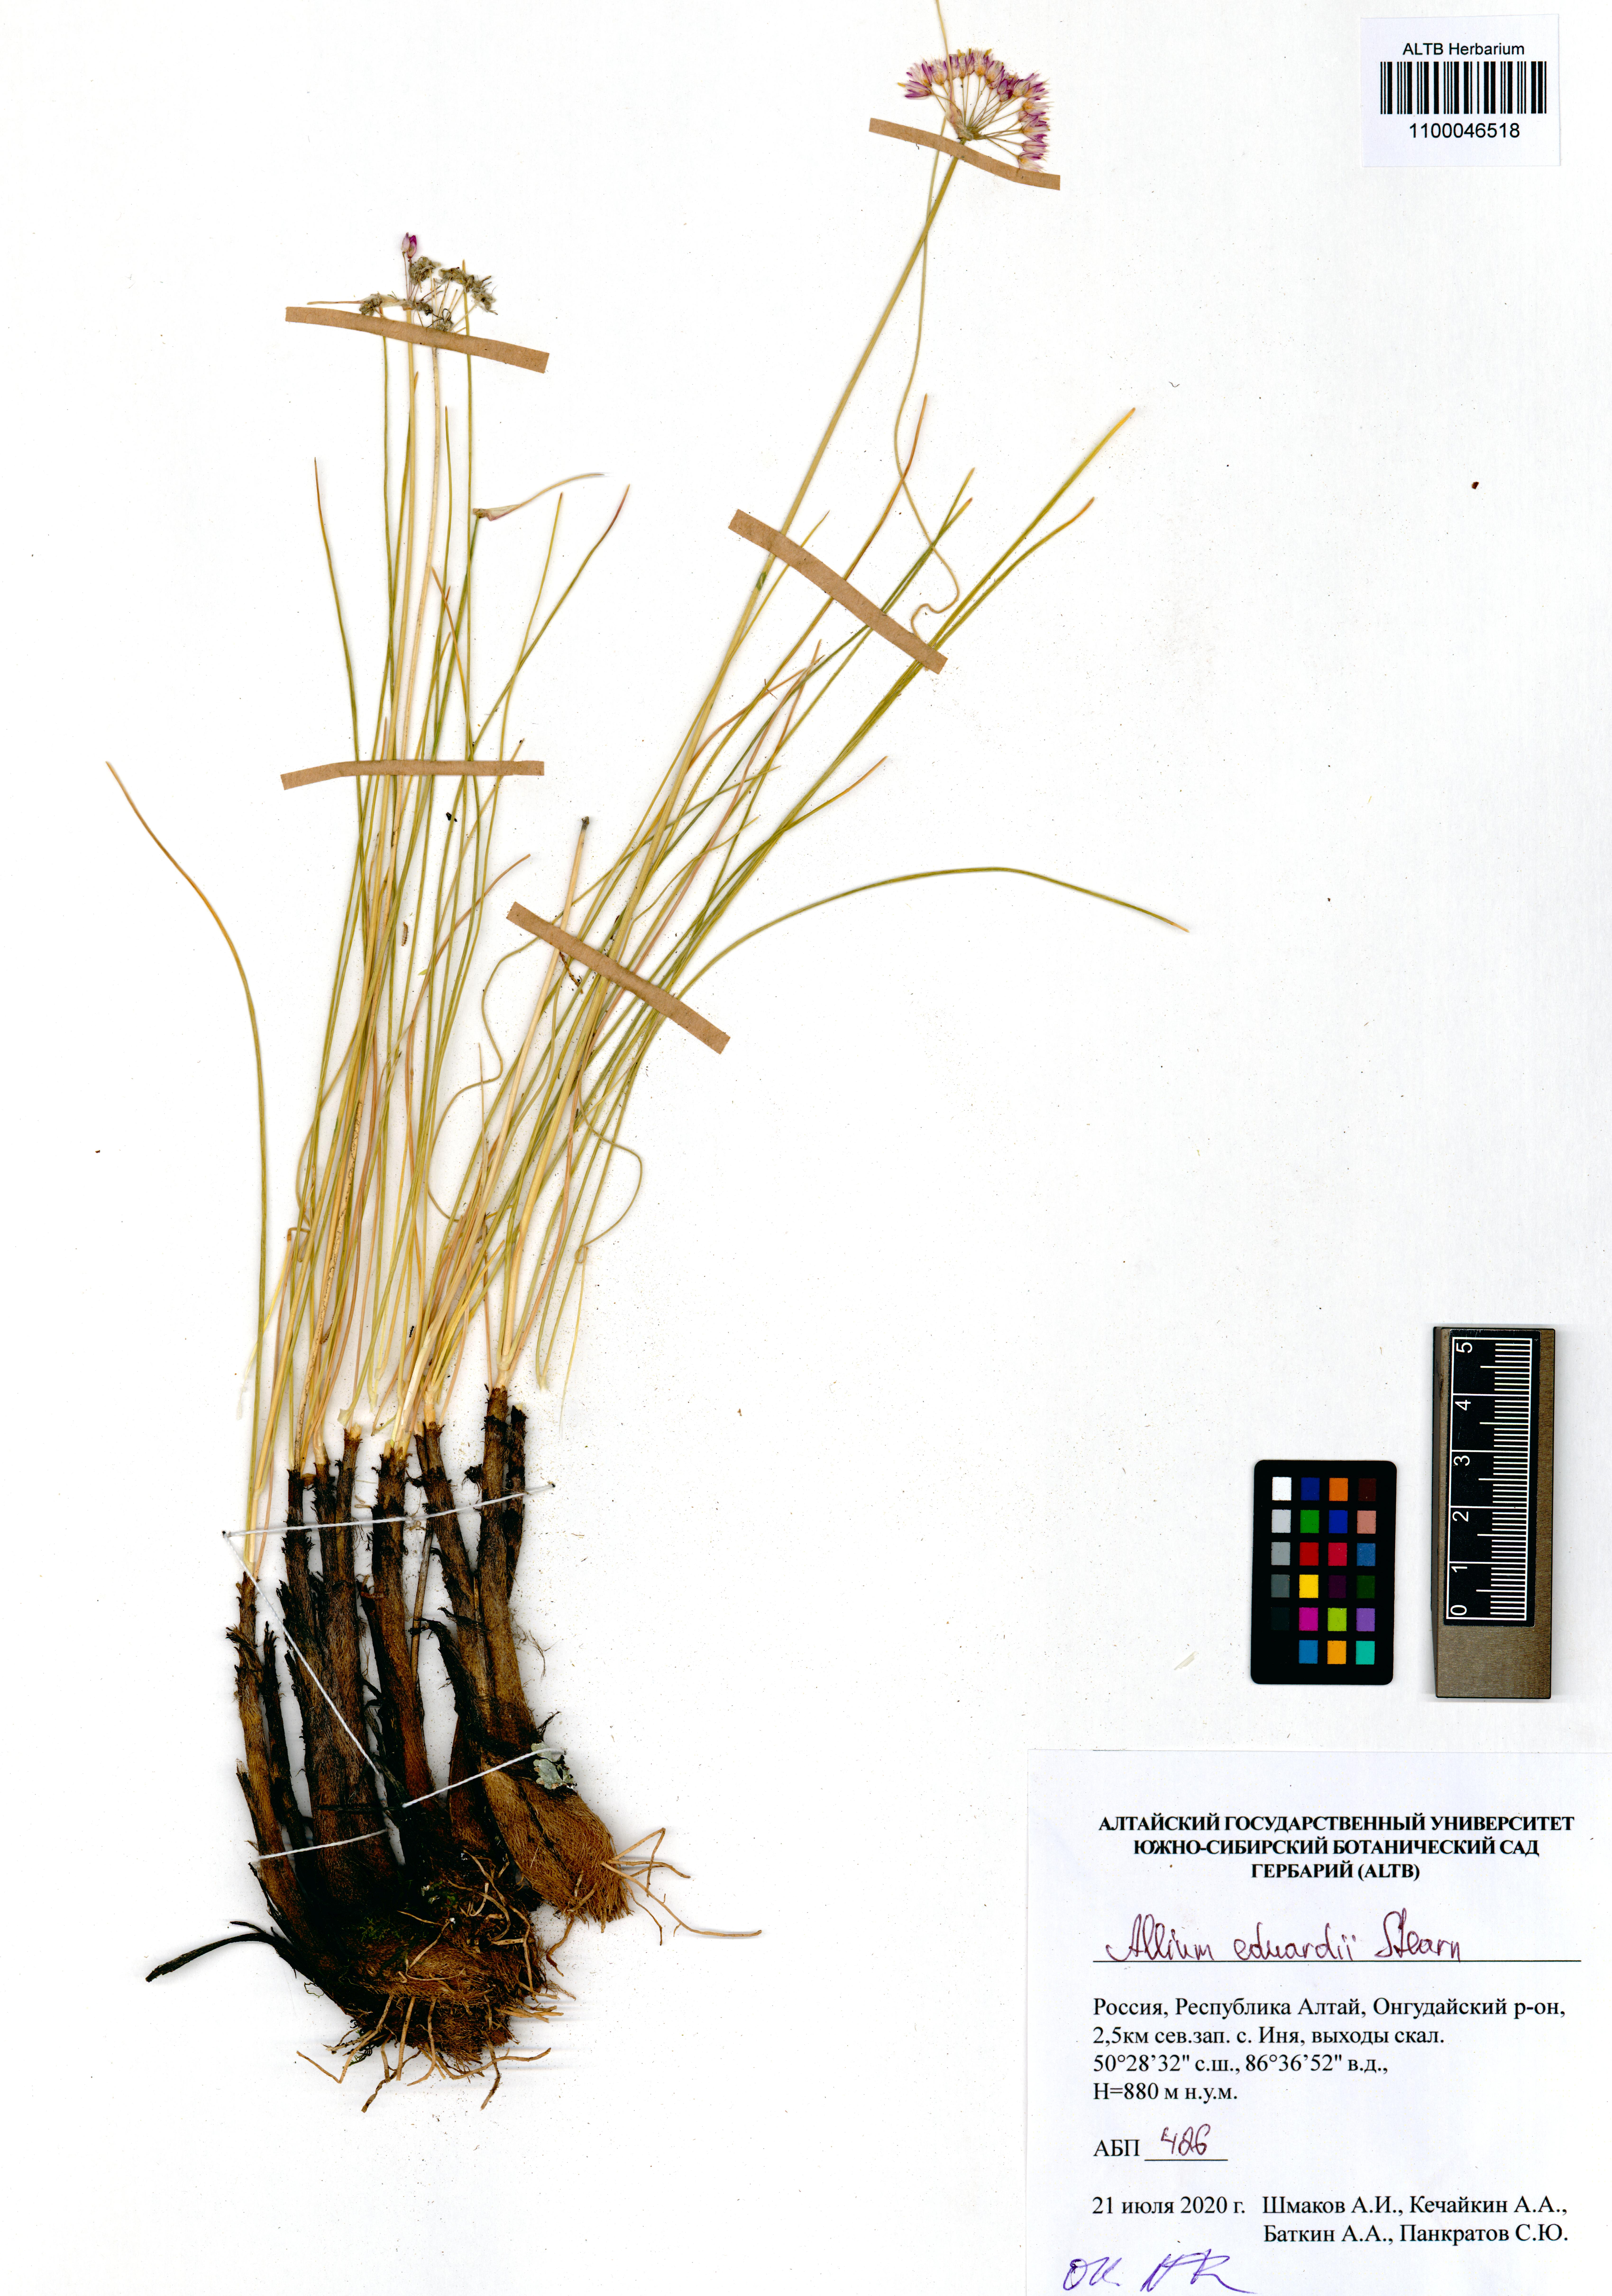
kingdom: Plantae
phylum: Tracheophyta
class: Liliopsida
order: Asparagales
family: Amaryllidaceae
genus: Allium
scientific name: Allium eduardi
